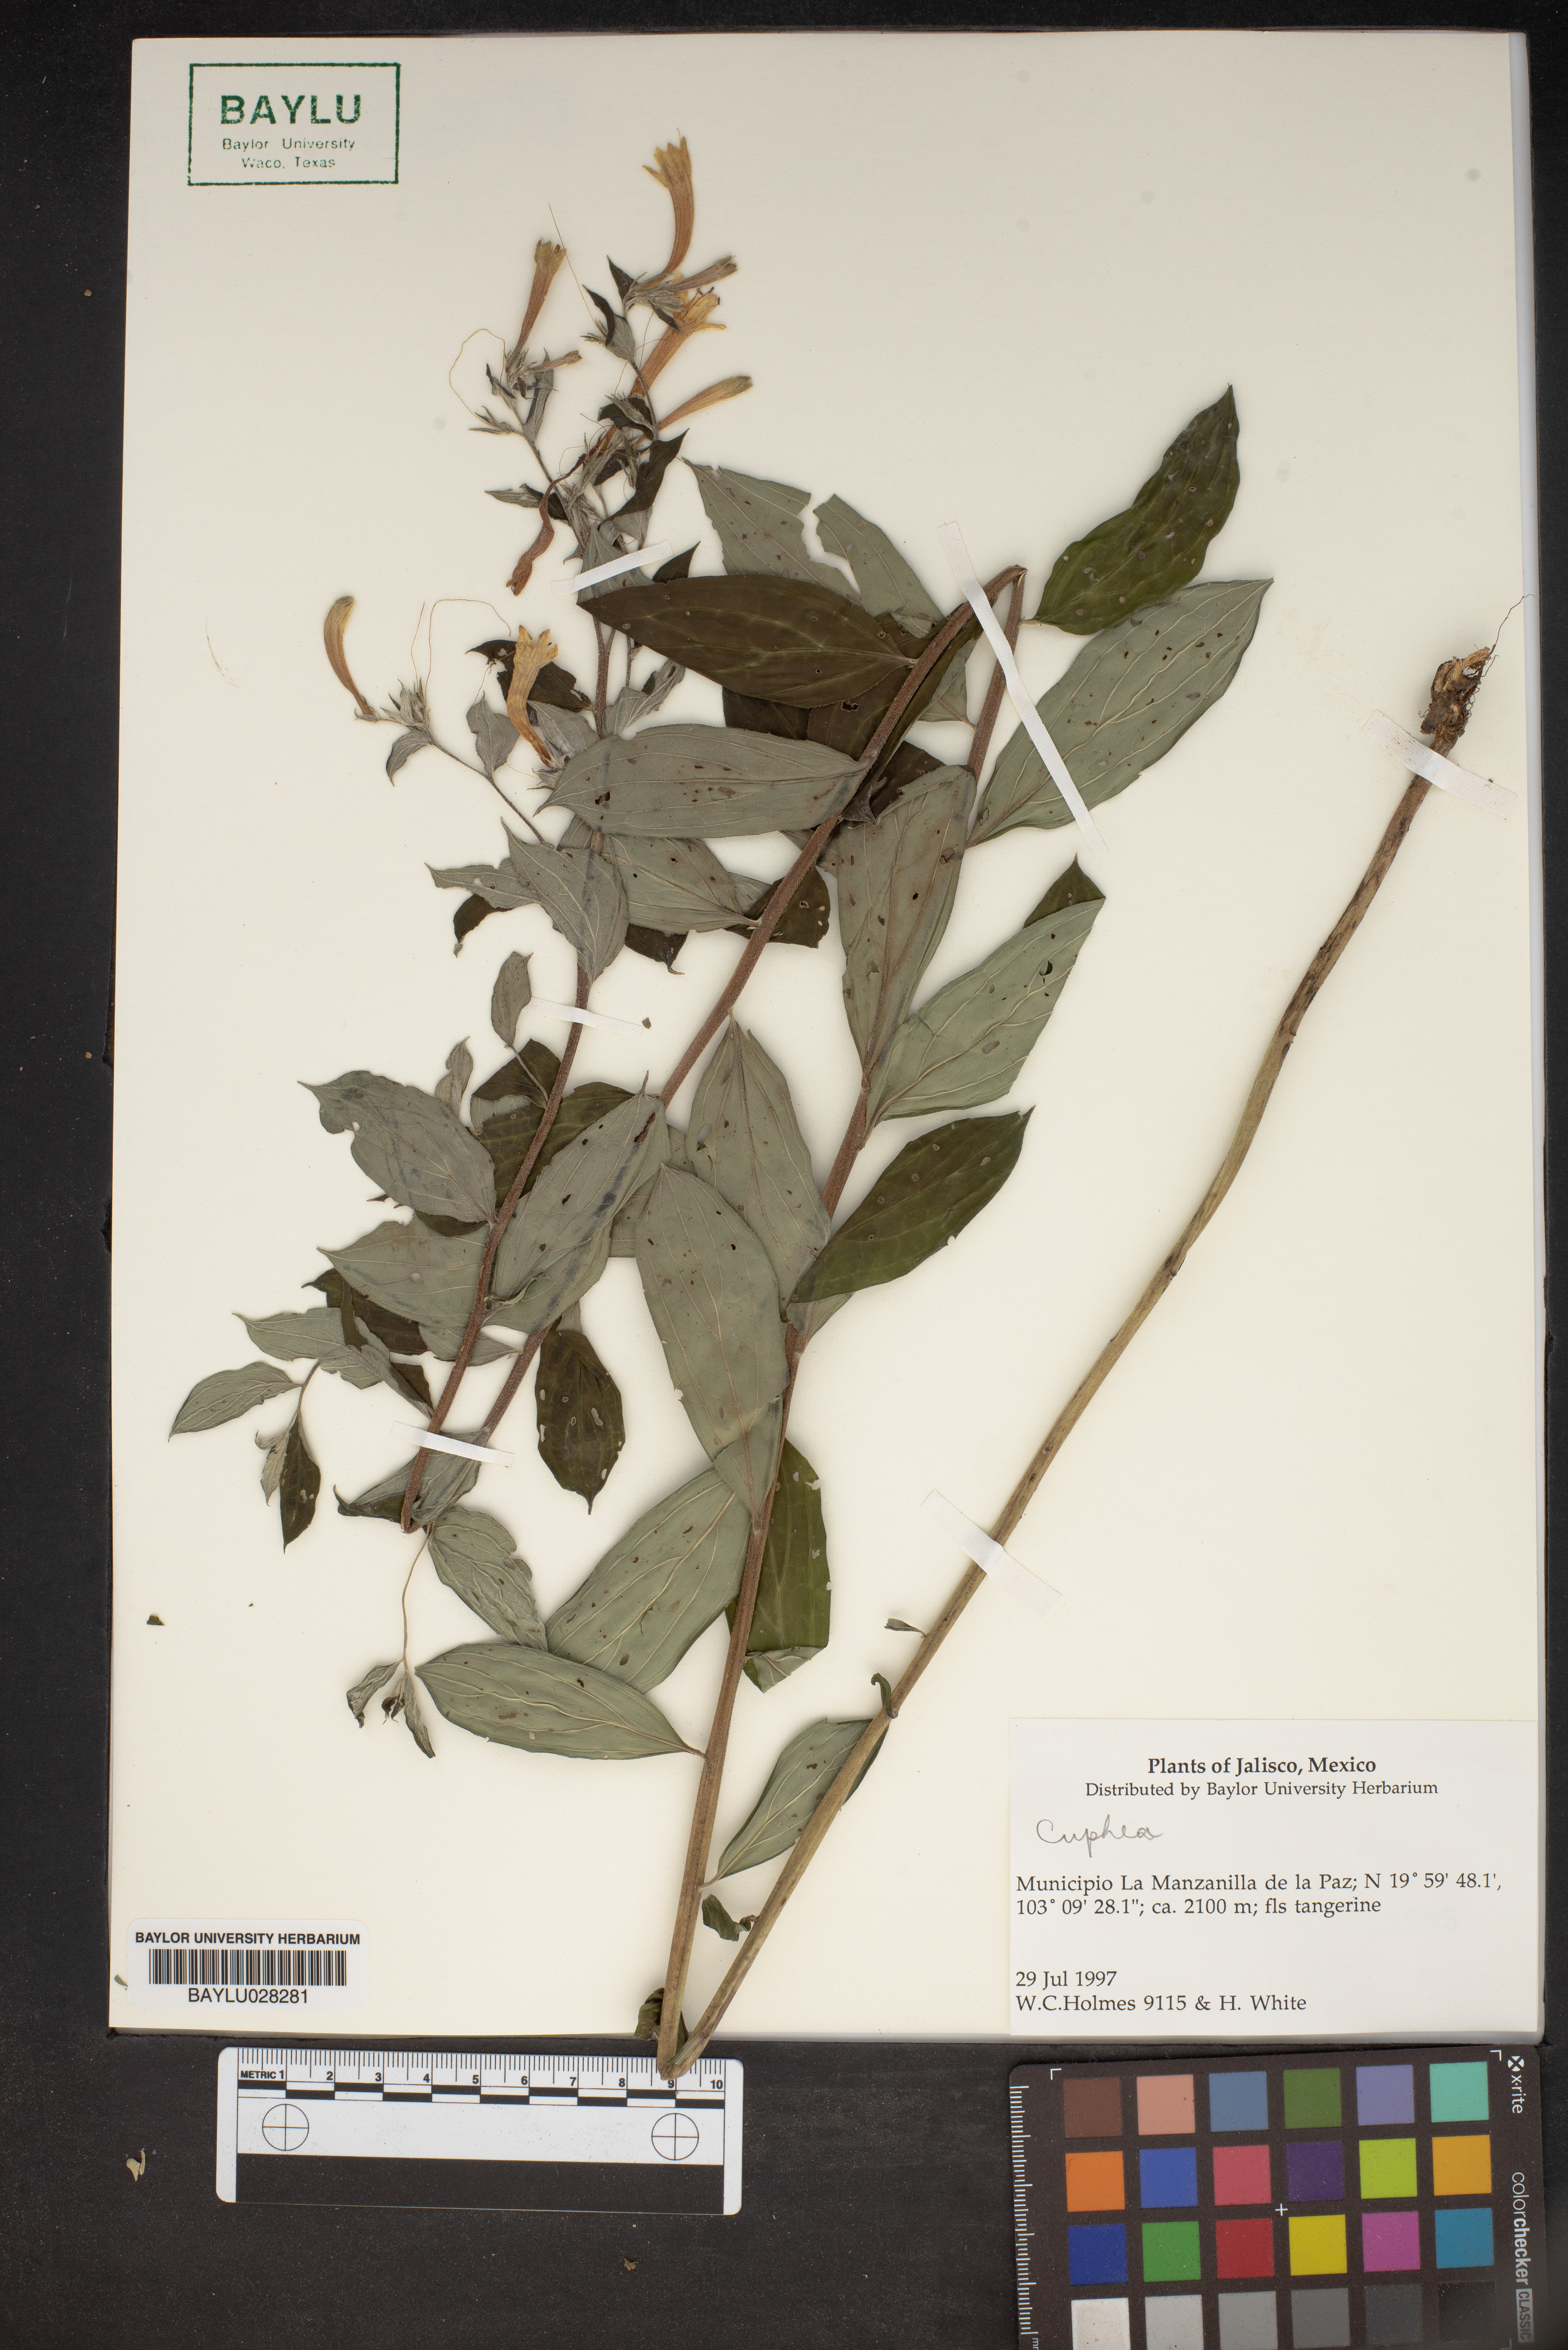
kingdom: Plantae
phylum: Tracheophyta
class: Magnoliopsida
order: Myrtales
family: Lythraceae
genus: Cuphea
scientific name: Cuphea
